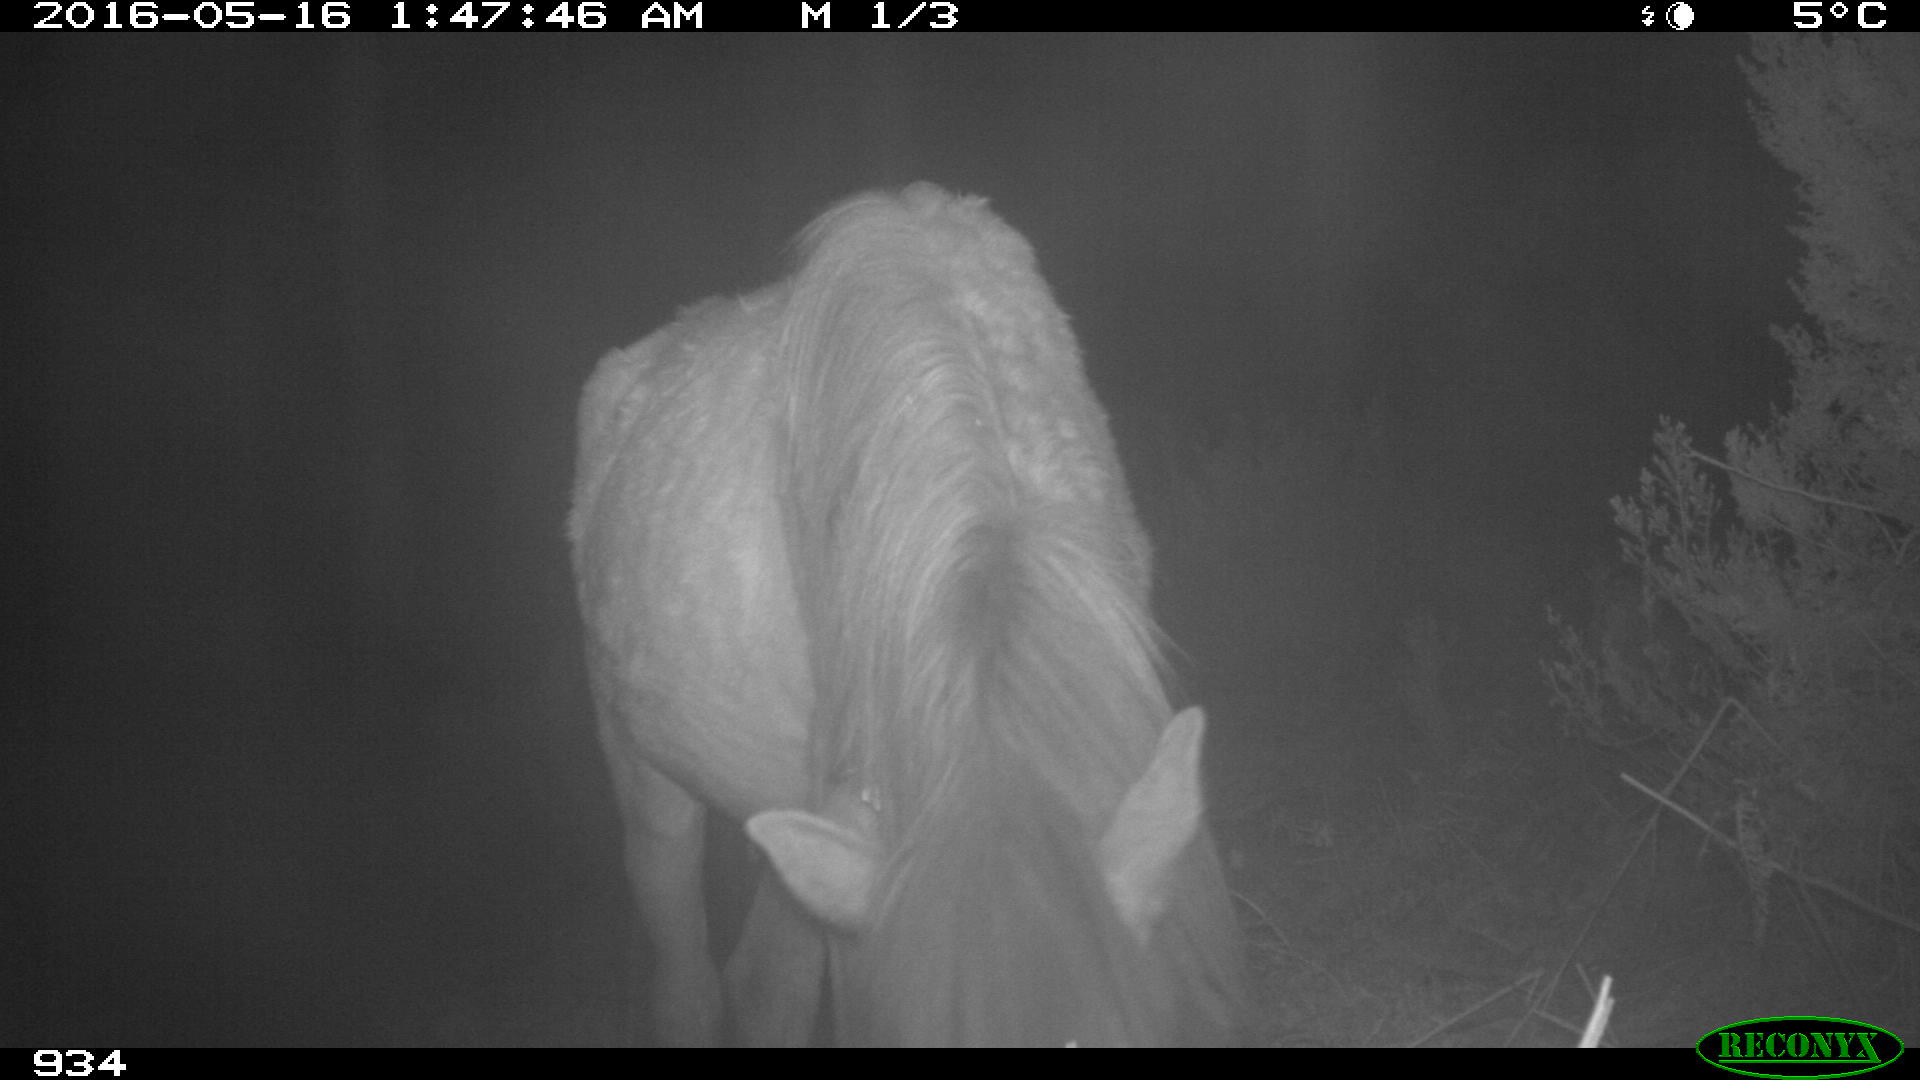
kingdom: Animalia
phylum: Chordata
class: Mammalia
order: Perissodactyla
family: Equidae
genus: Equus
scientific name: Equus caballus
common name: Horse
